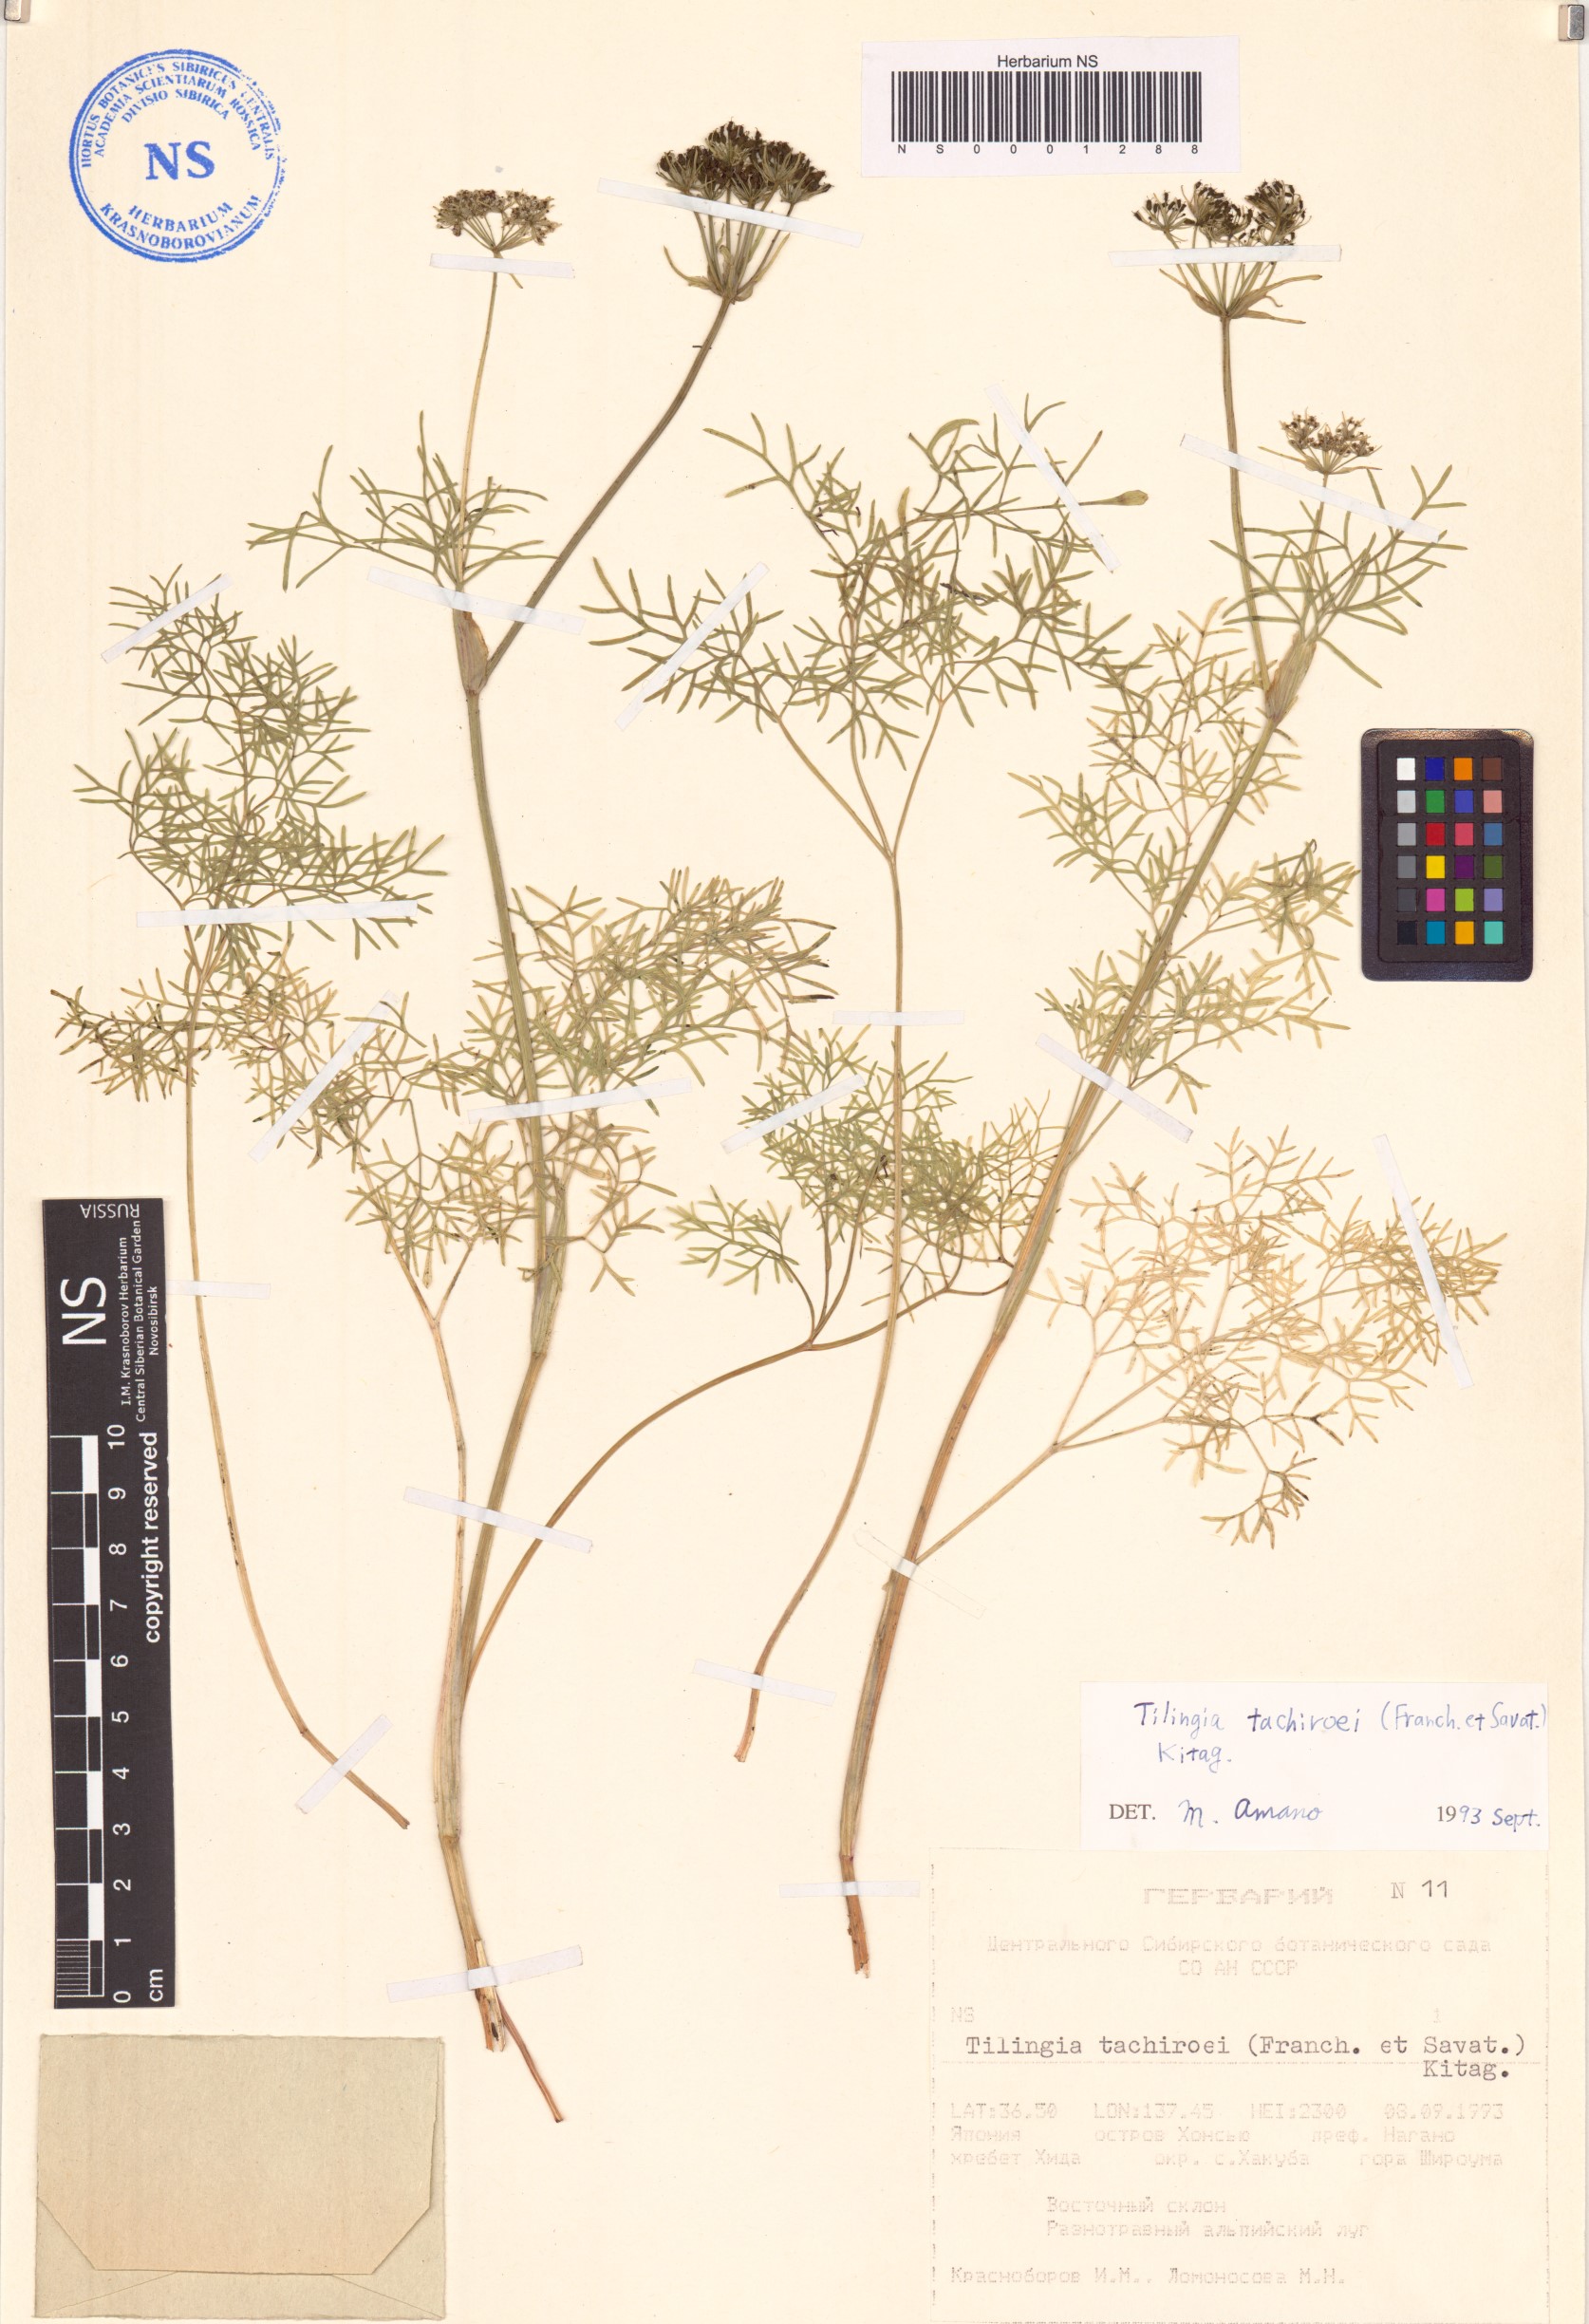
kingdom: Plantae
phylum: Tracheophyta
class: Magnoliopsida
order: Apiales
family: Apiaceae
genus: Rupiphila
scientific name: Rupiphila tachiroei
